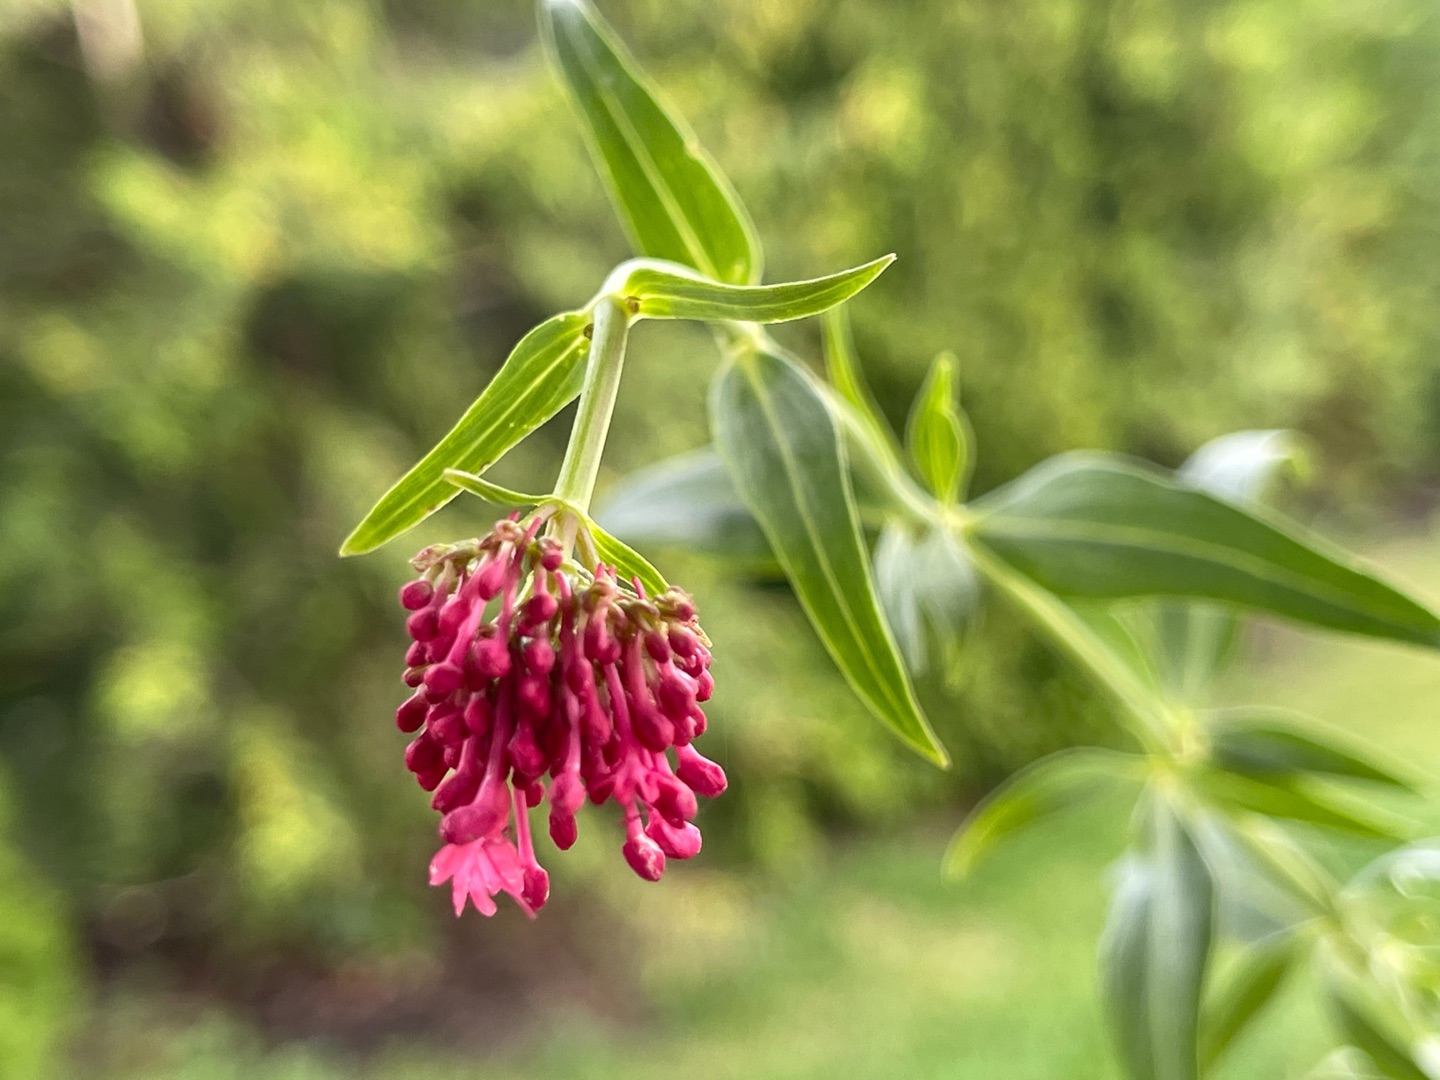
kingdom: Plantae
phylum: Tracheophyta
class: Magnoliopsida
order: Dipsacales
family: Caprifoliaceae
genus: Centranthus
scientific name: Centranthus ruber
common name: Sporebaldrian
